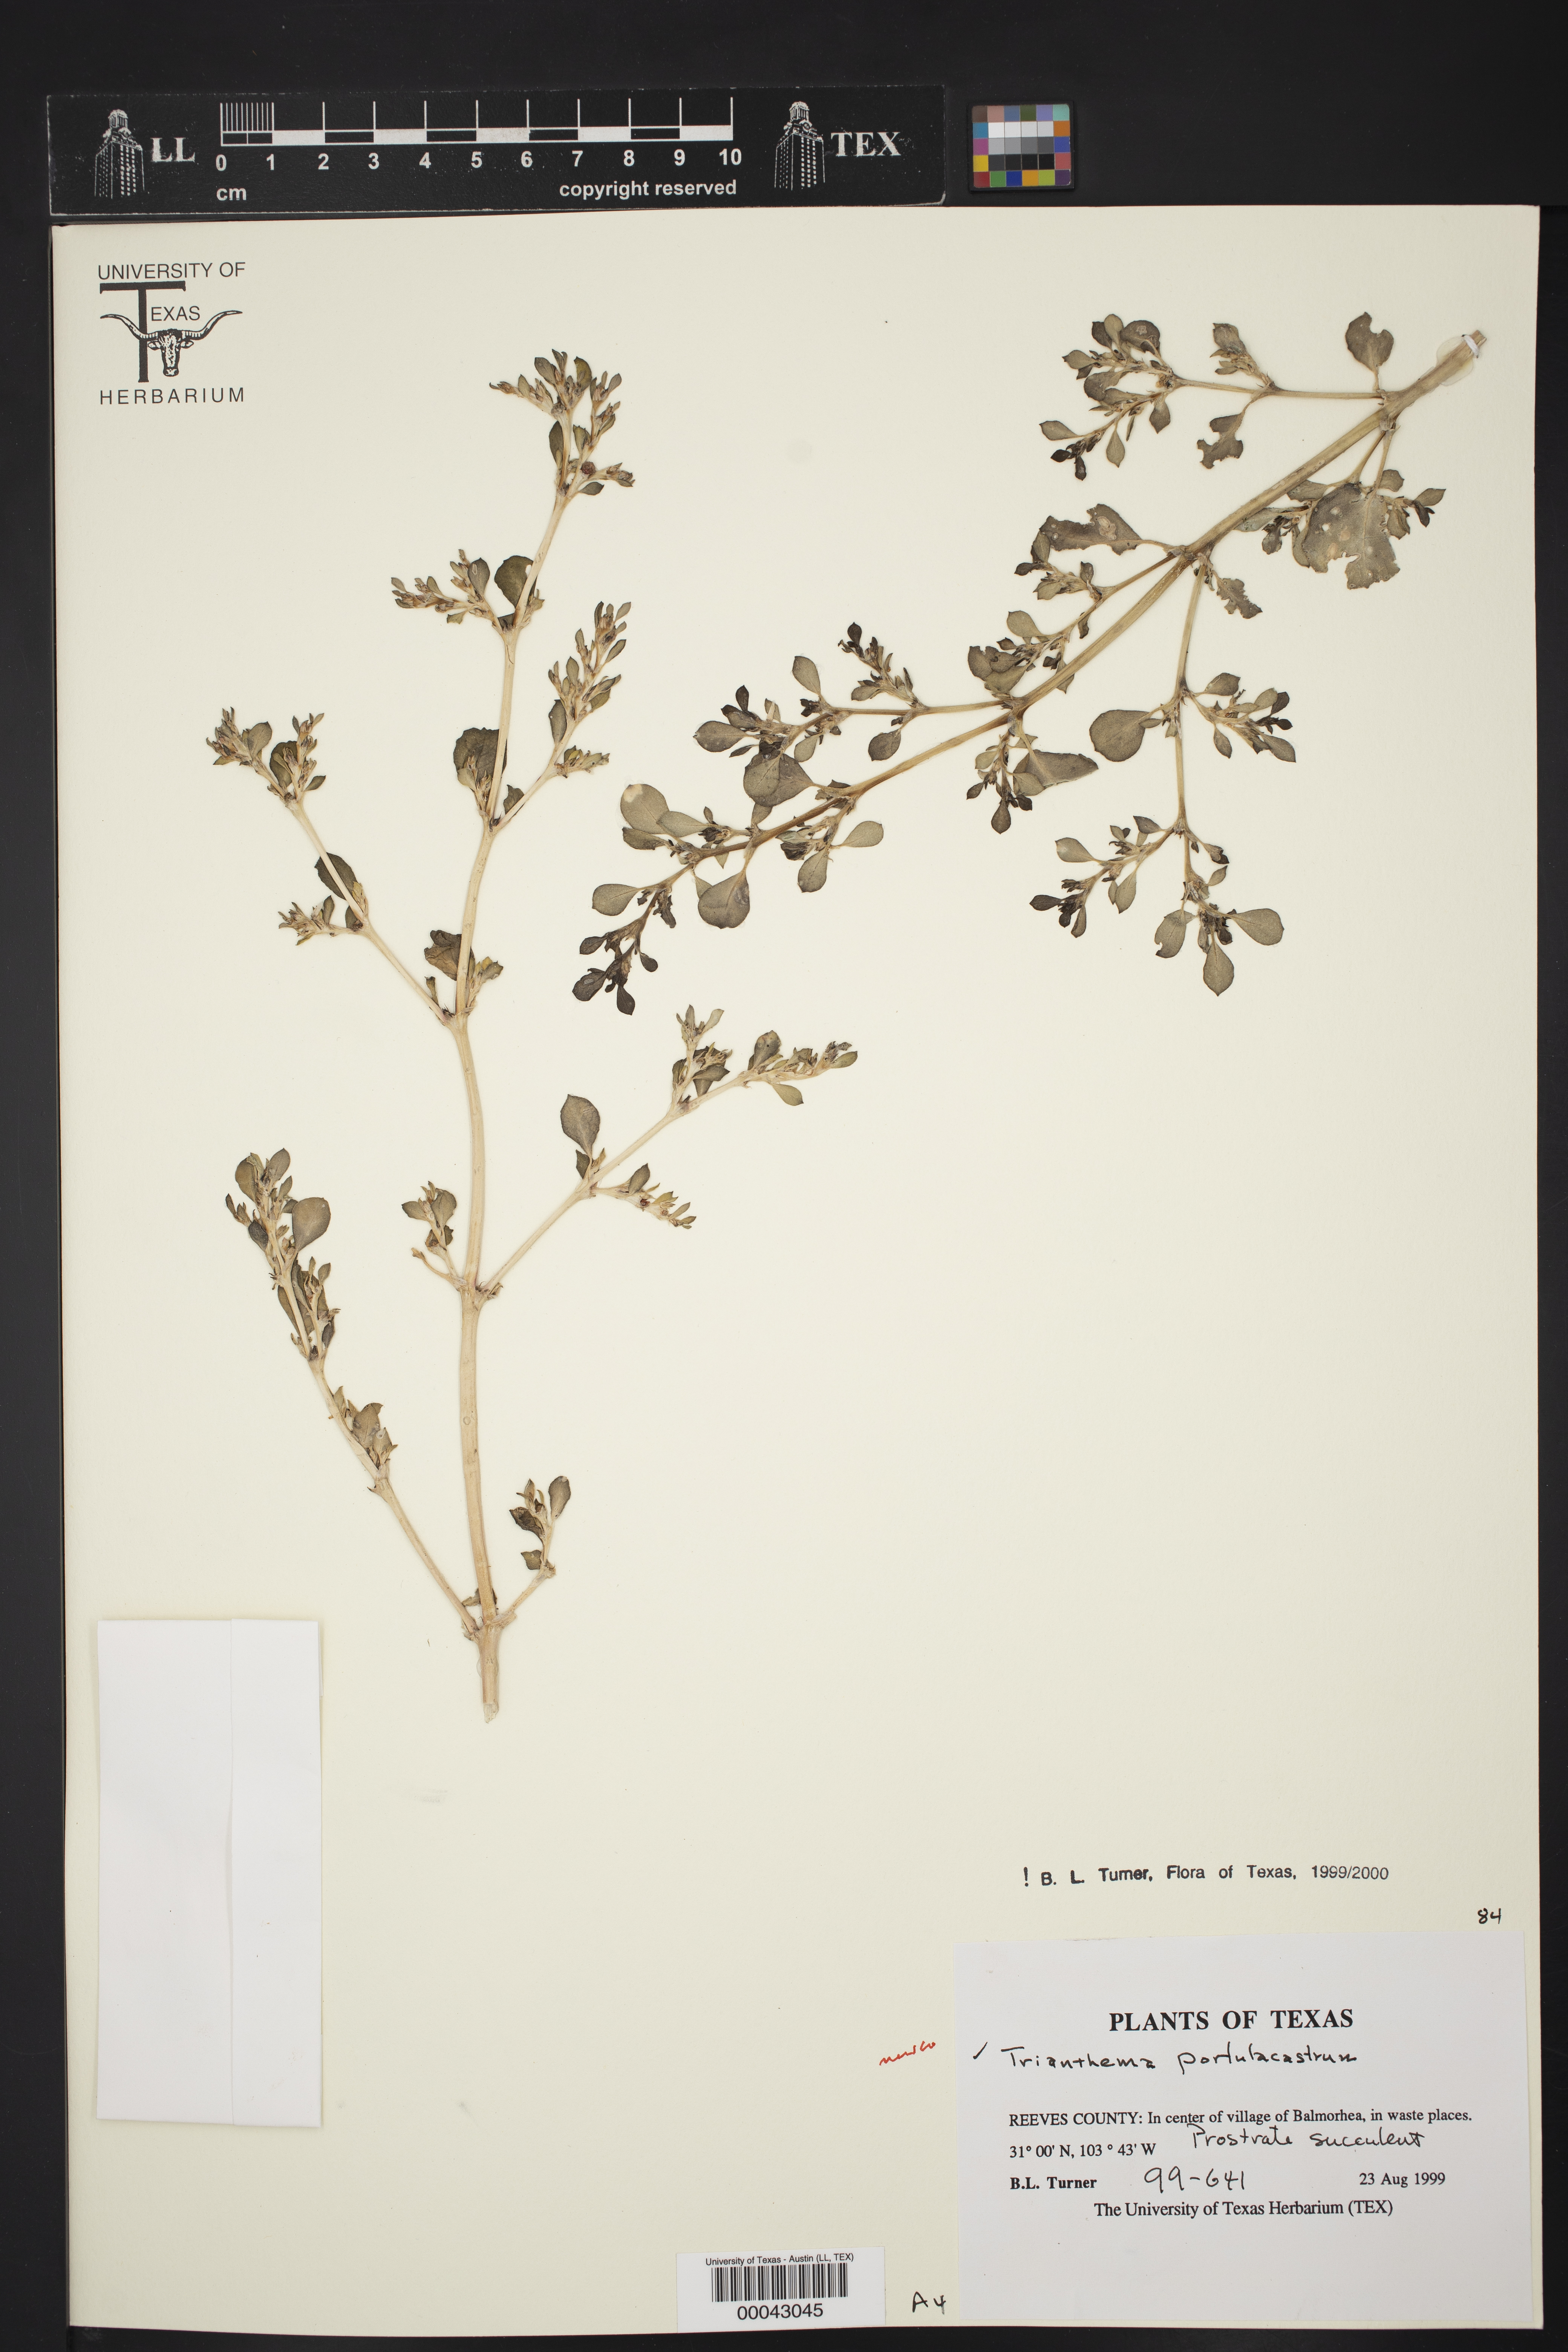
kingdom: Plantae
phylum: Tracheophyta
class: Magnoliopsida
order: Caryophyllales
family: Aizoaceae
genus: Trianthema
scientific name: Trianthema portulacastrum
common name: Desert horsepurslane
